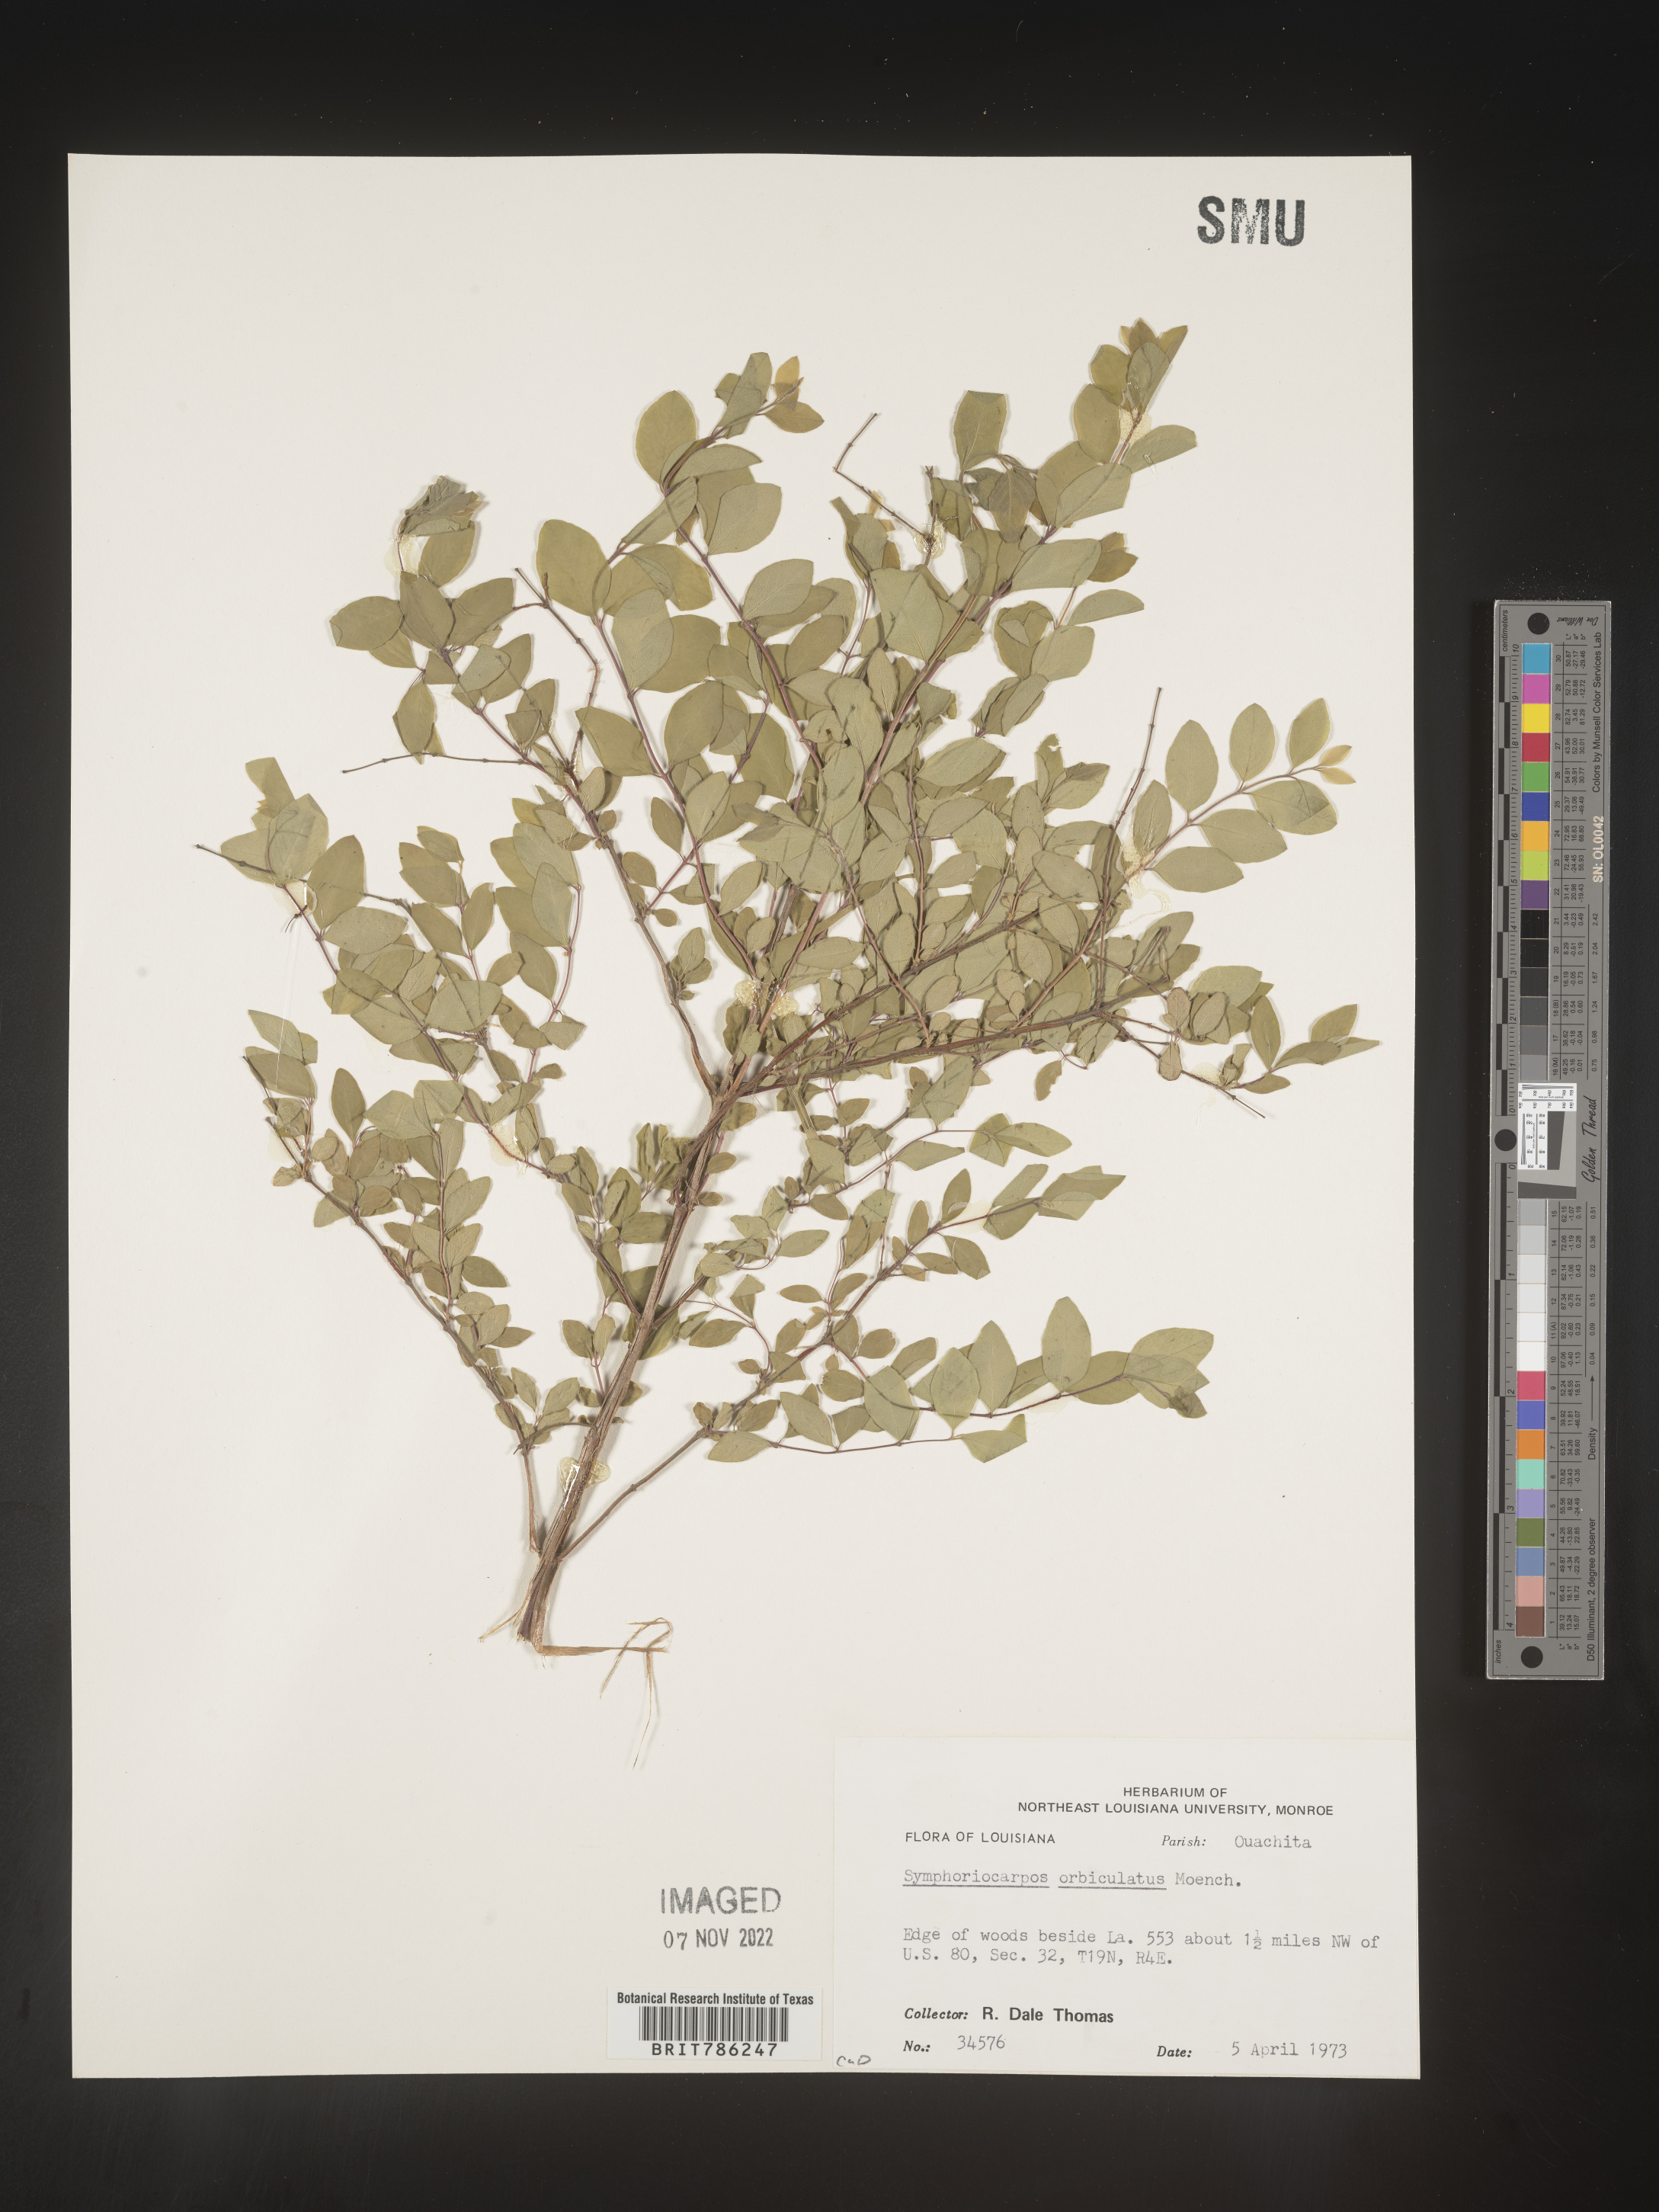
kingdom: Plantae
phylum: Tracheophyta
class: Magnoliopsida
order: Dipsacales
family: Caprifoliaceae
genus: Symphoricarpos
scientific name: Symphoricarpos orbiculatus
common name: Coralberry
